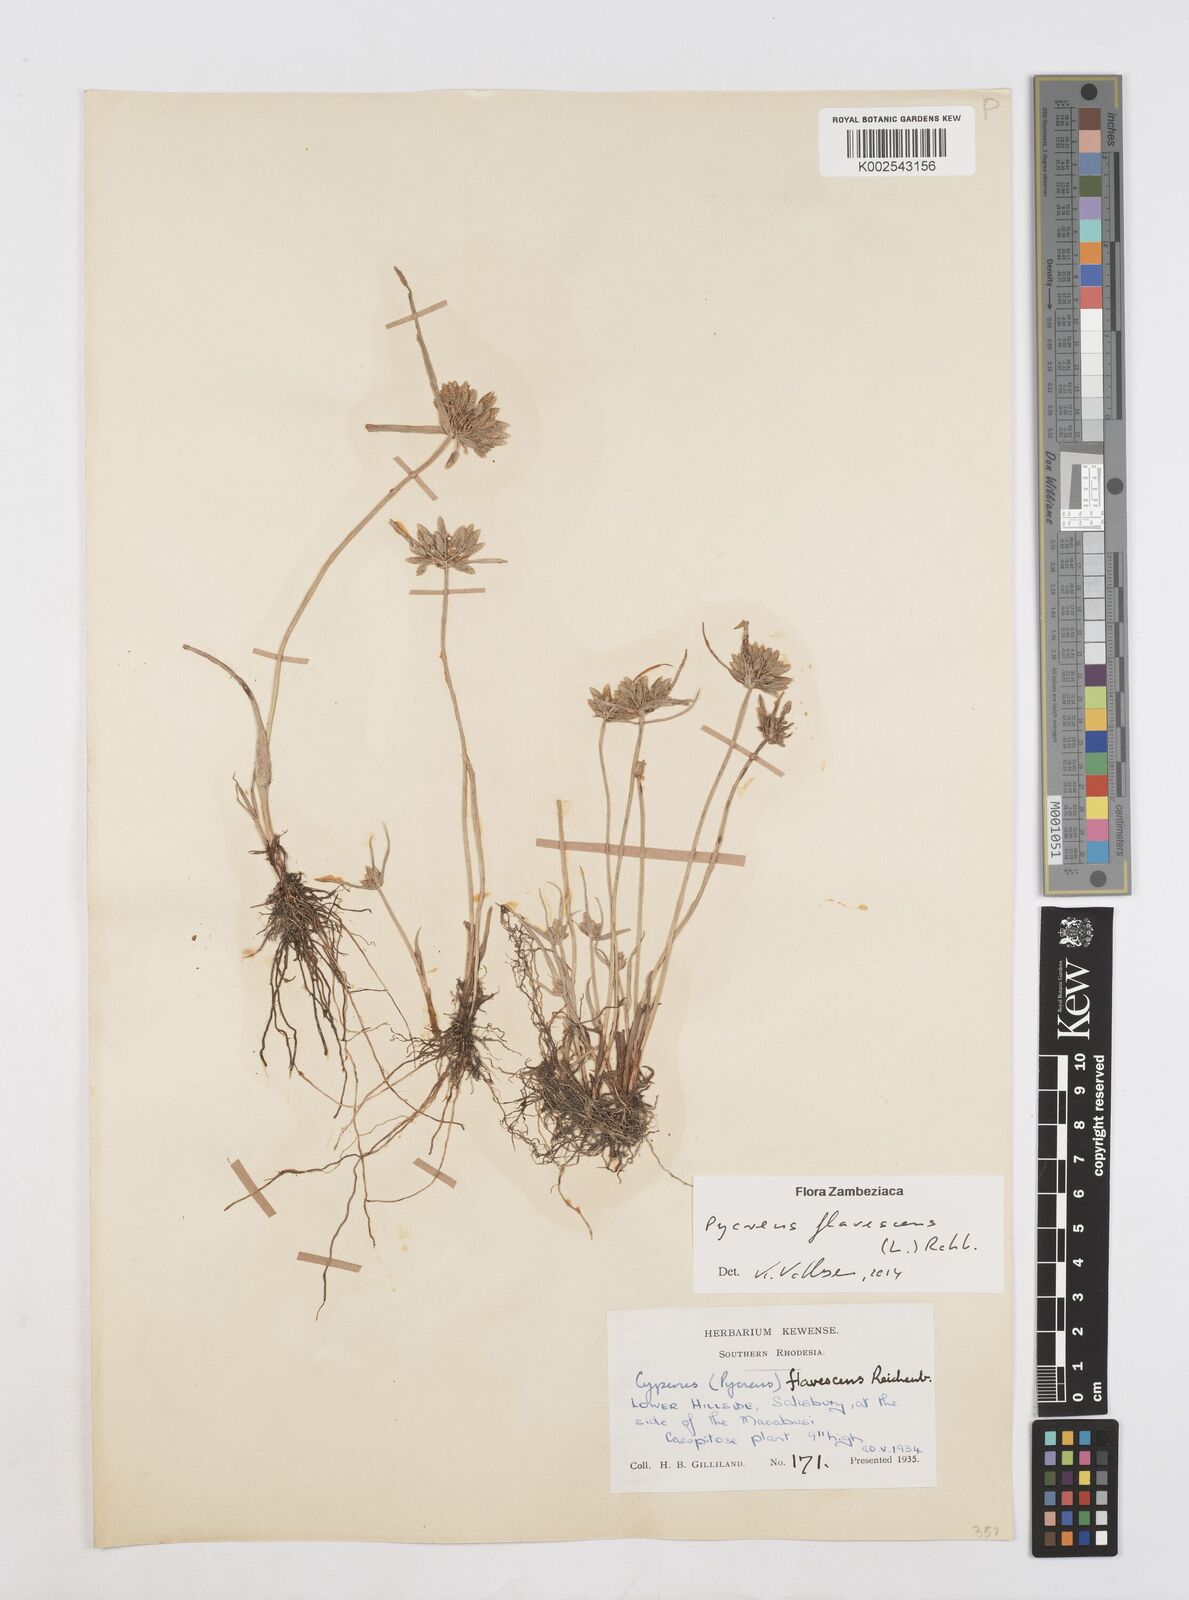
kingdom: Plantae
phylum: Tracheophyta
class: Liliopsida
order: Poales
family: Cyperaceae
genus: Cyperus
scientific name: Cyperus flavescens
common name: Yellow galingale
